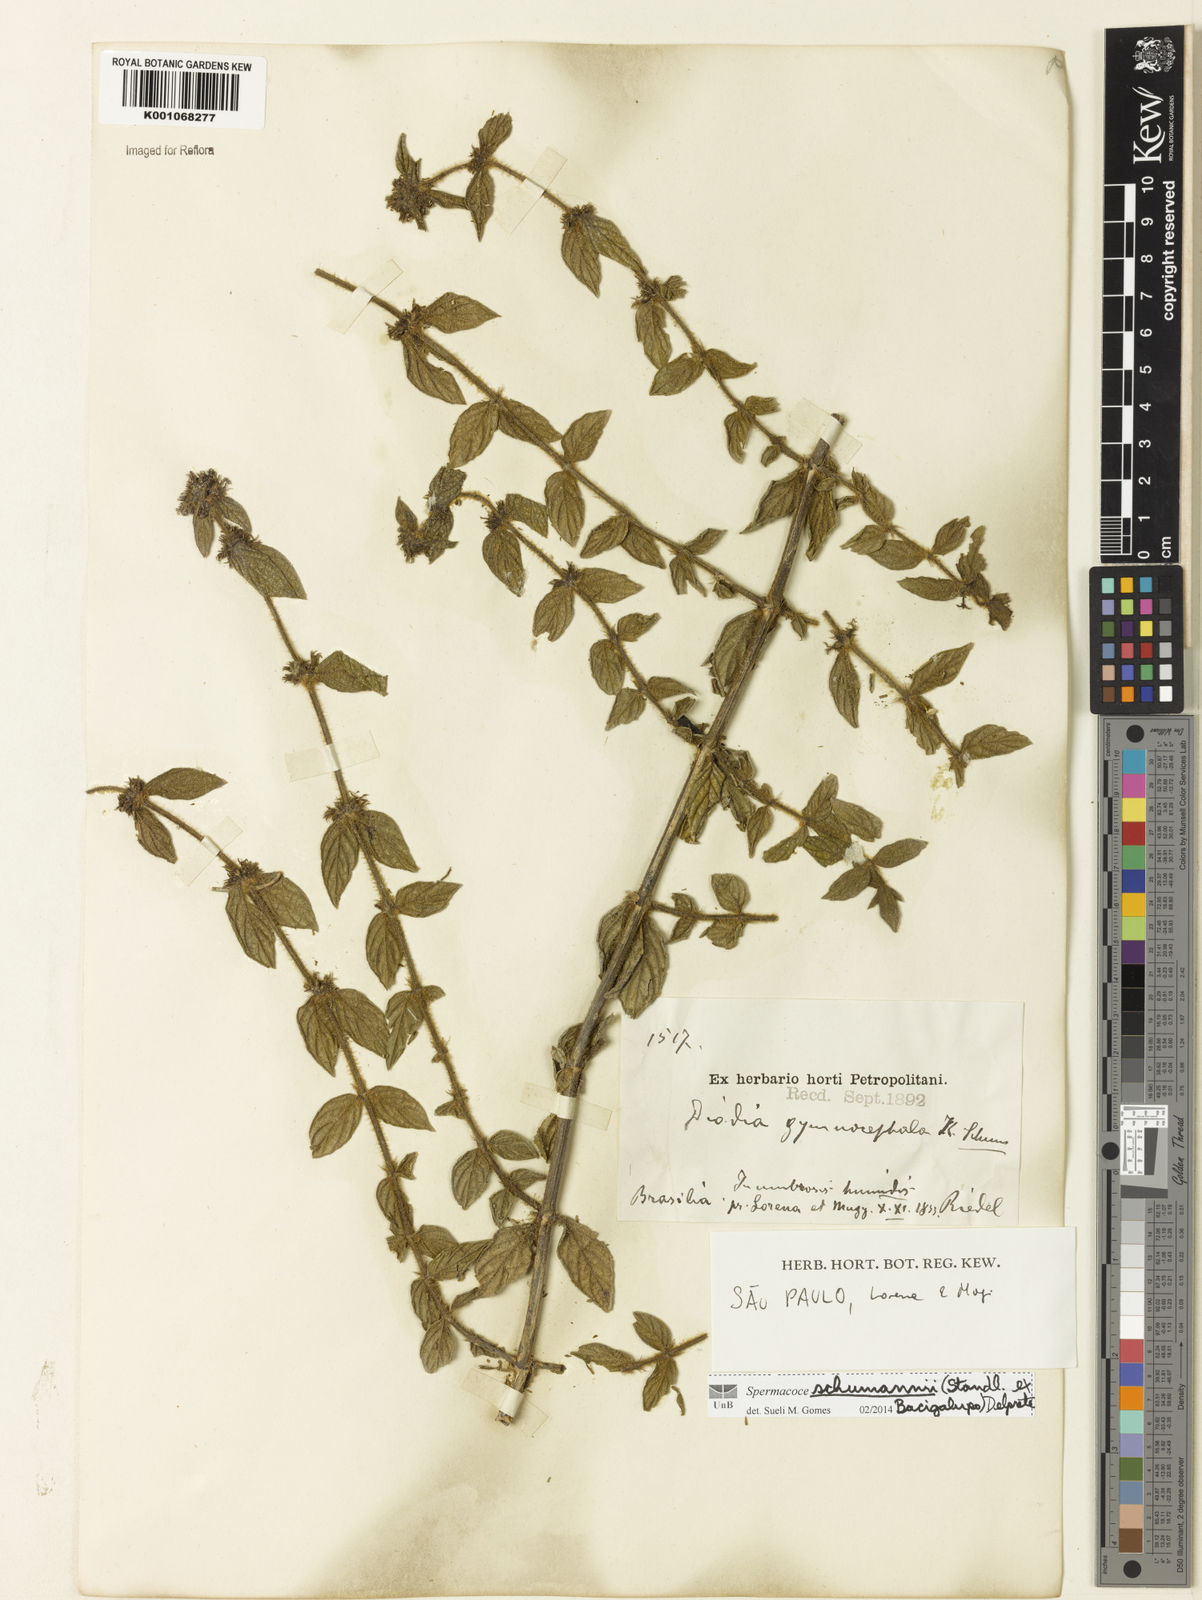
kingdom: Plantae
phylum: Tracheophyta
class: Magnoliopsida
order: Gentianales
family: Rubiaceae
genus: Spermacoce
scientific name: Spermacoce schumannii
